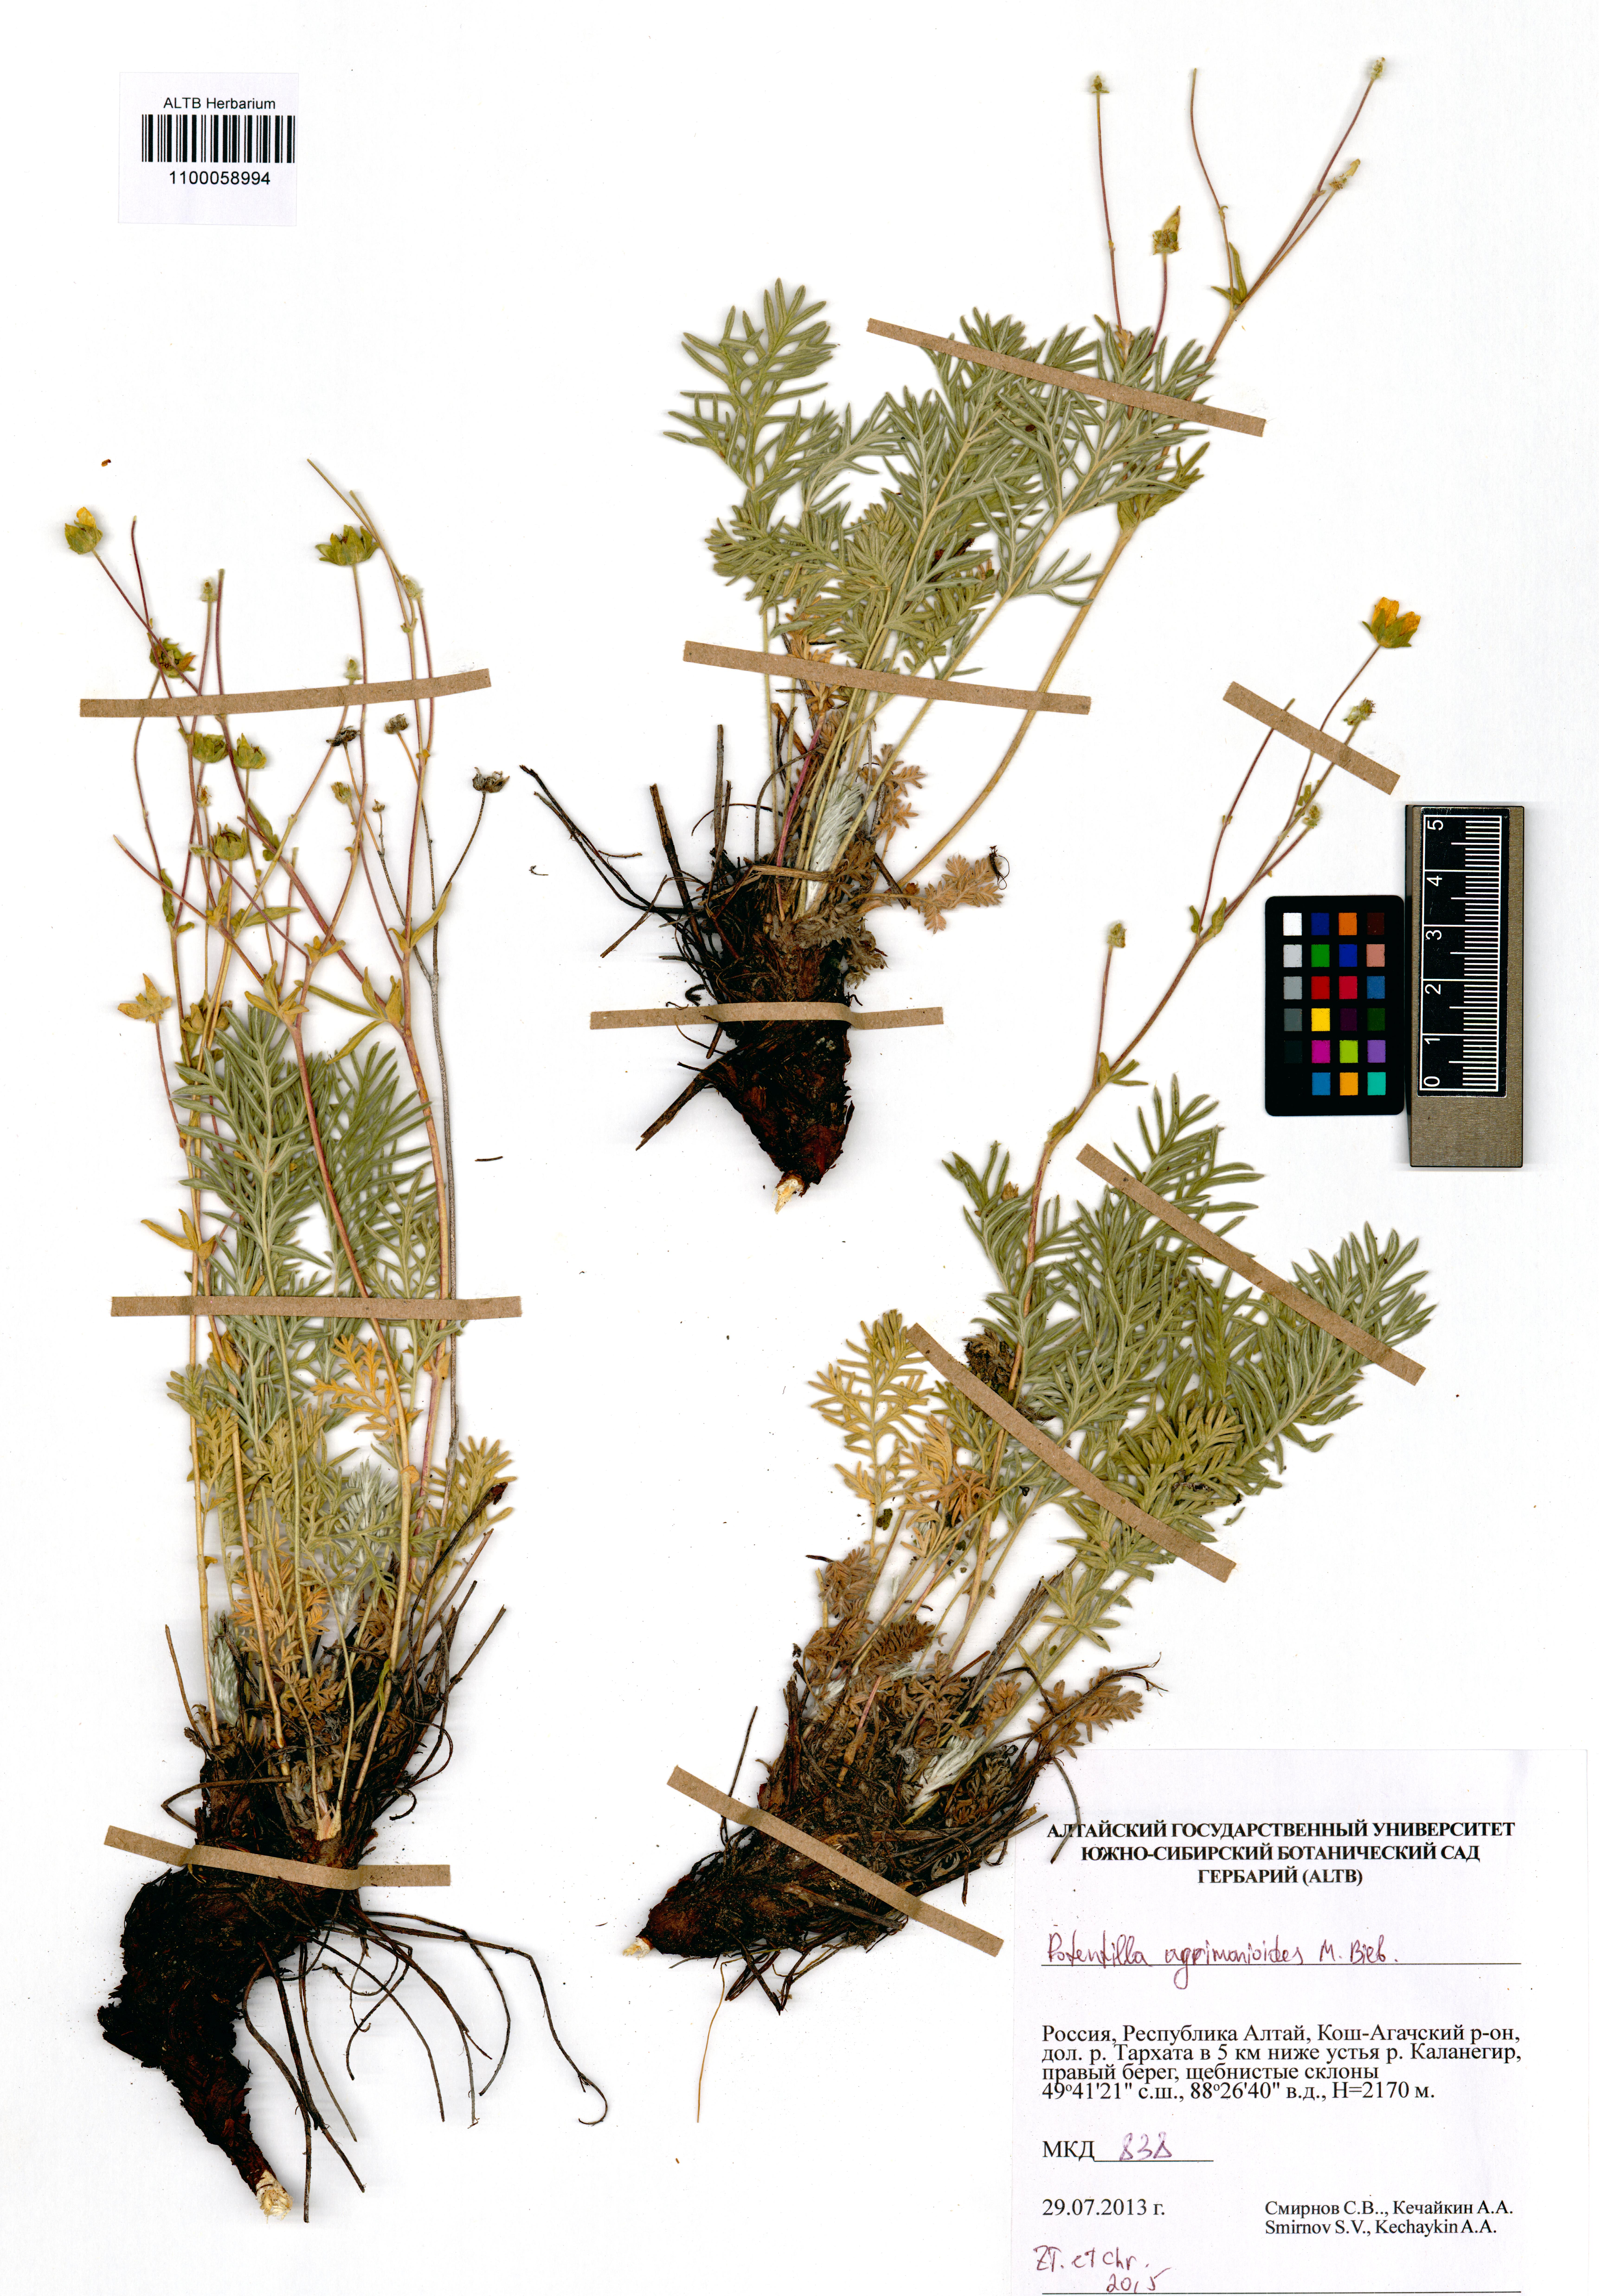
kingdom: Plantae
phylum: Tracheophyta
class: Magnoliopsida
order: Rosales
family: Rosaceae
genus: Potentilla
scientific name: Potentilla agrimonioides
